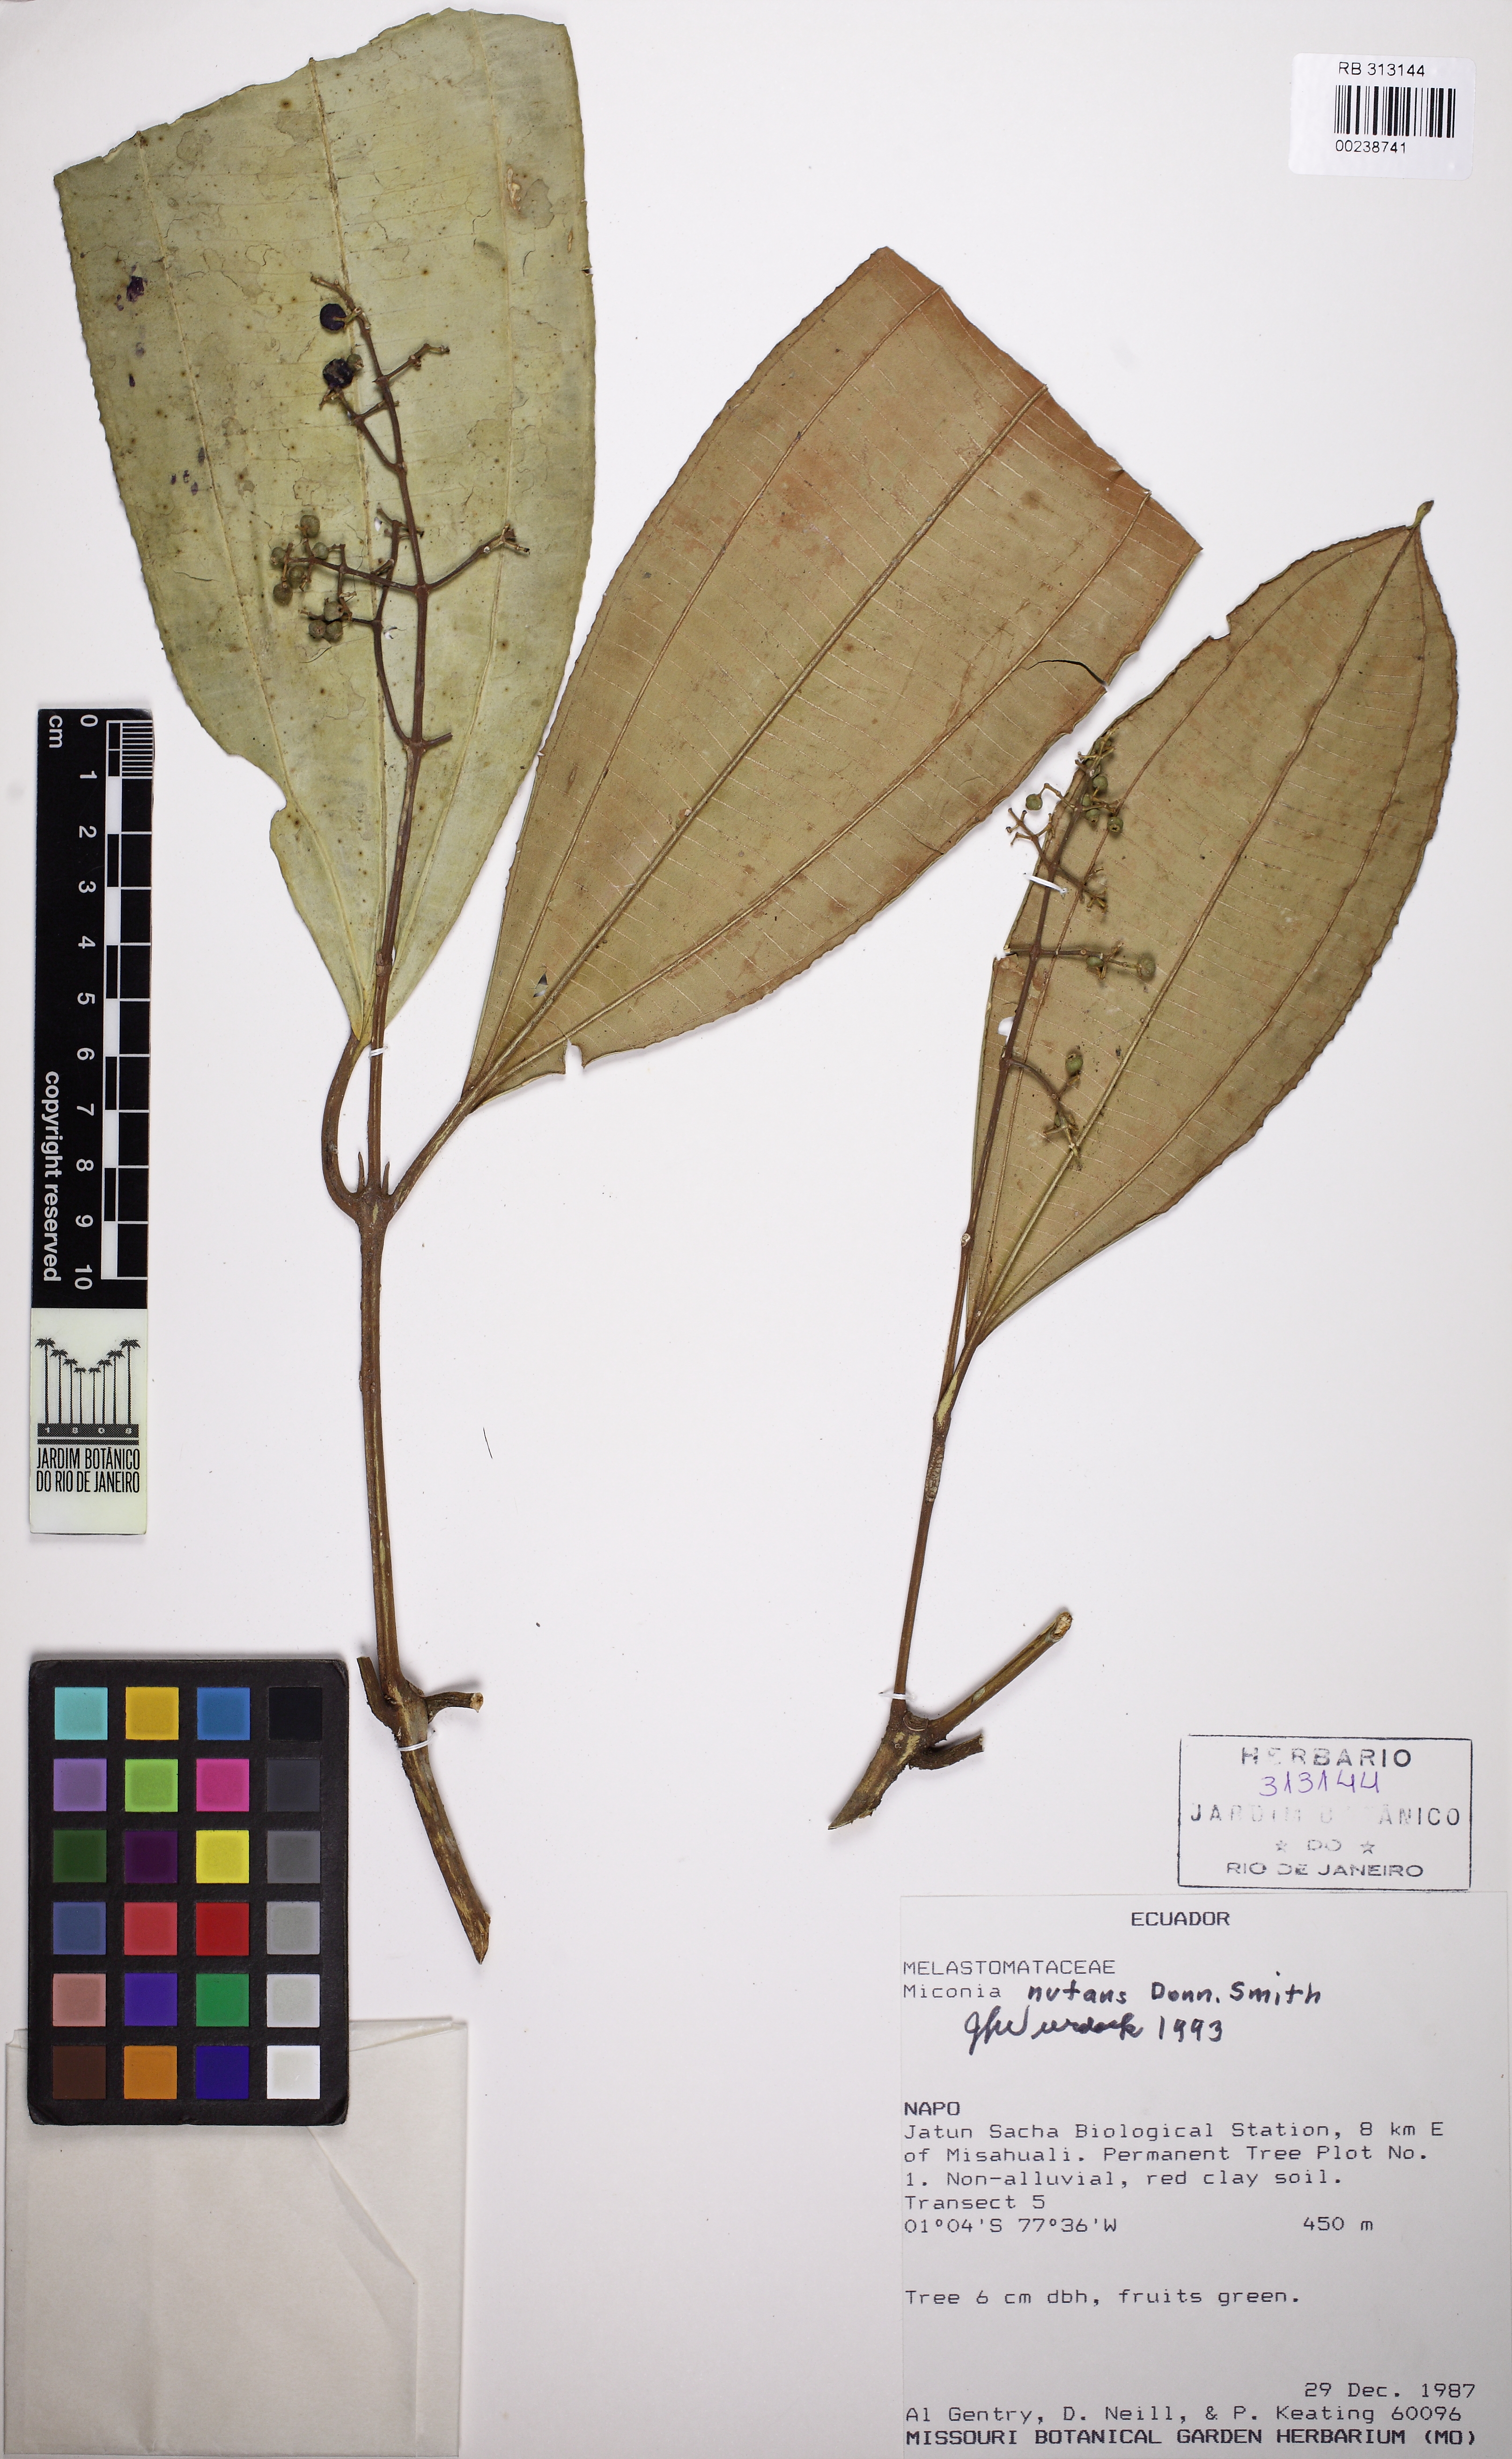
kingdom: Plantae
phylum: Tracheophyta
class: Magnoliopsida
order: Myrtales
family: Melastomataceae
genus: Miconia
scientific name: Miconia nutans
